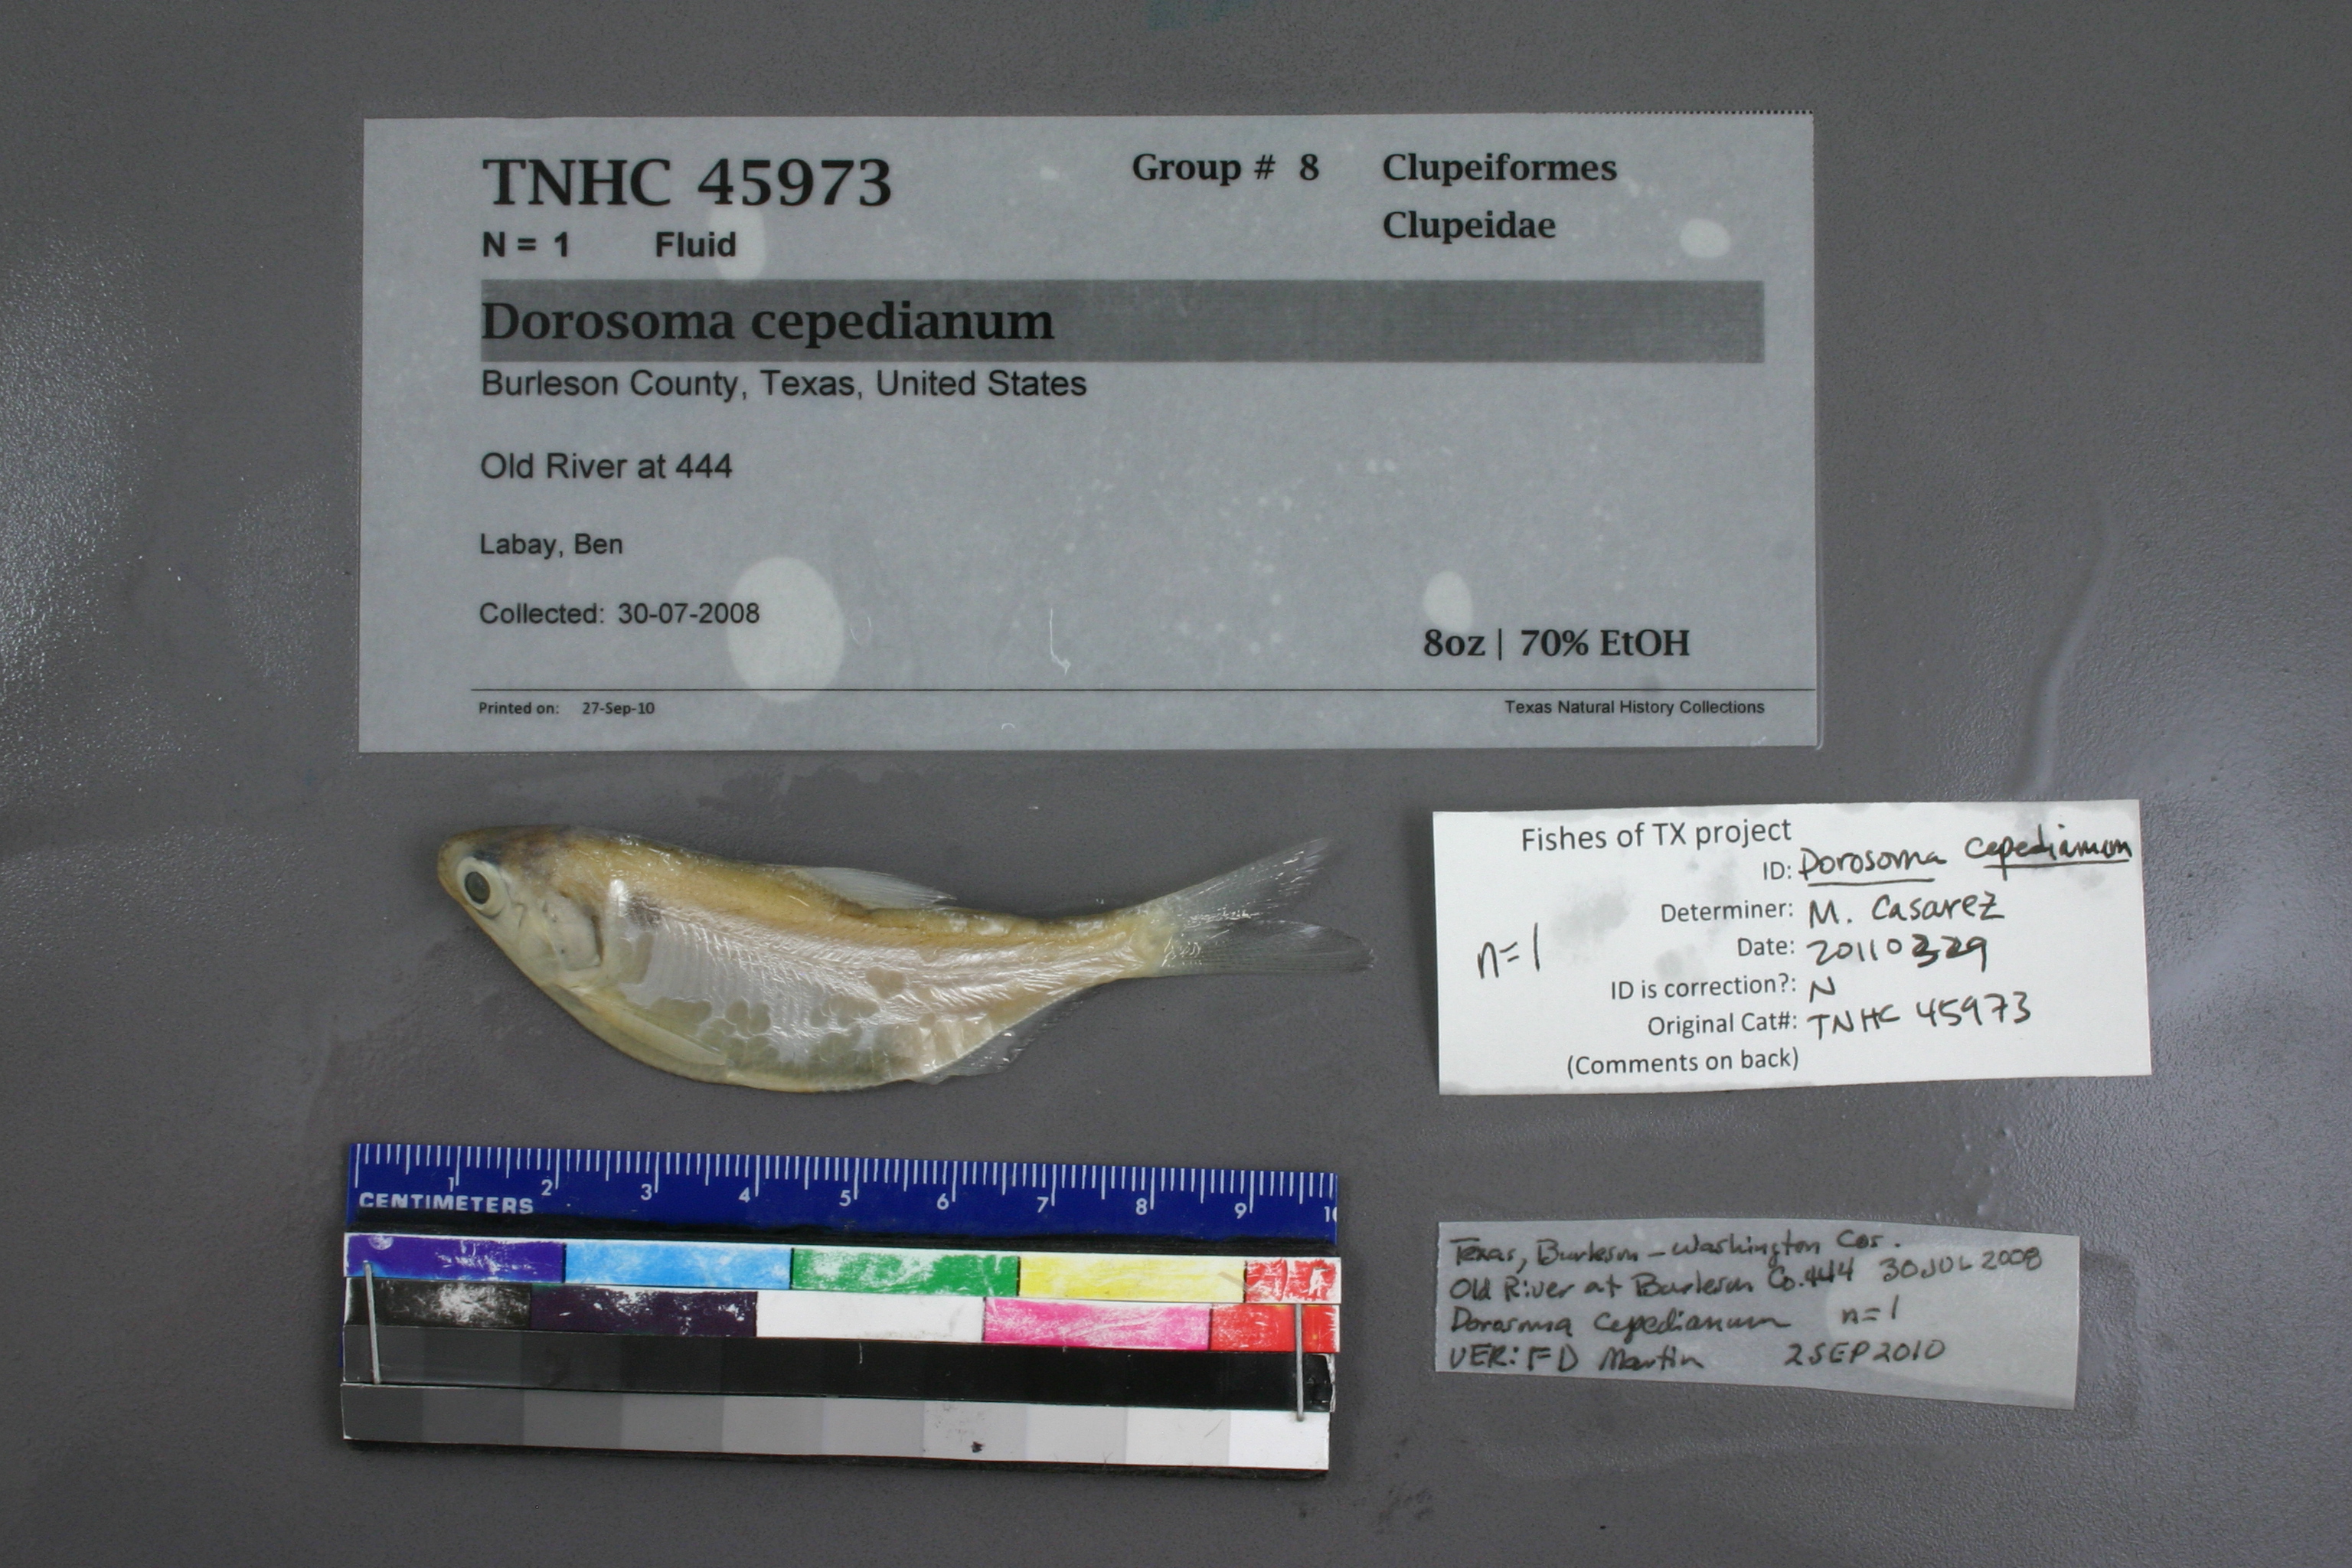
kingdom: Animalia
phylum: Chordata
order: Clupeiformes
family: Clupeidae
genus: Dorosoma
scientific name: Dorosoma cepedianum
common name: Gizzard shad
